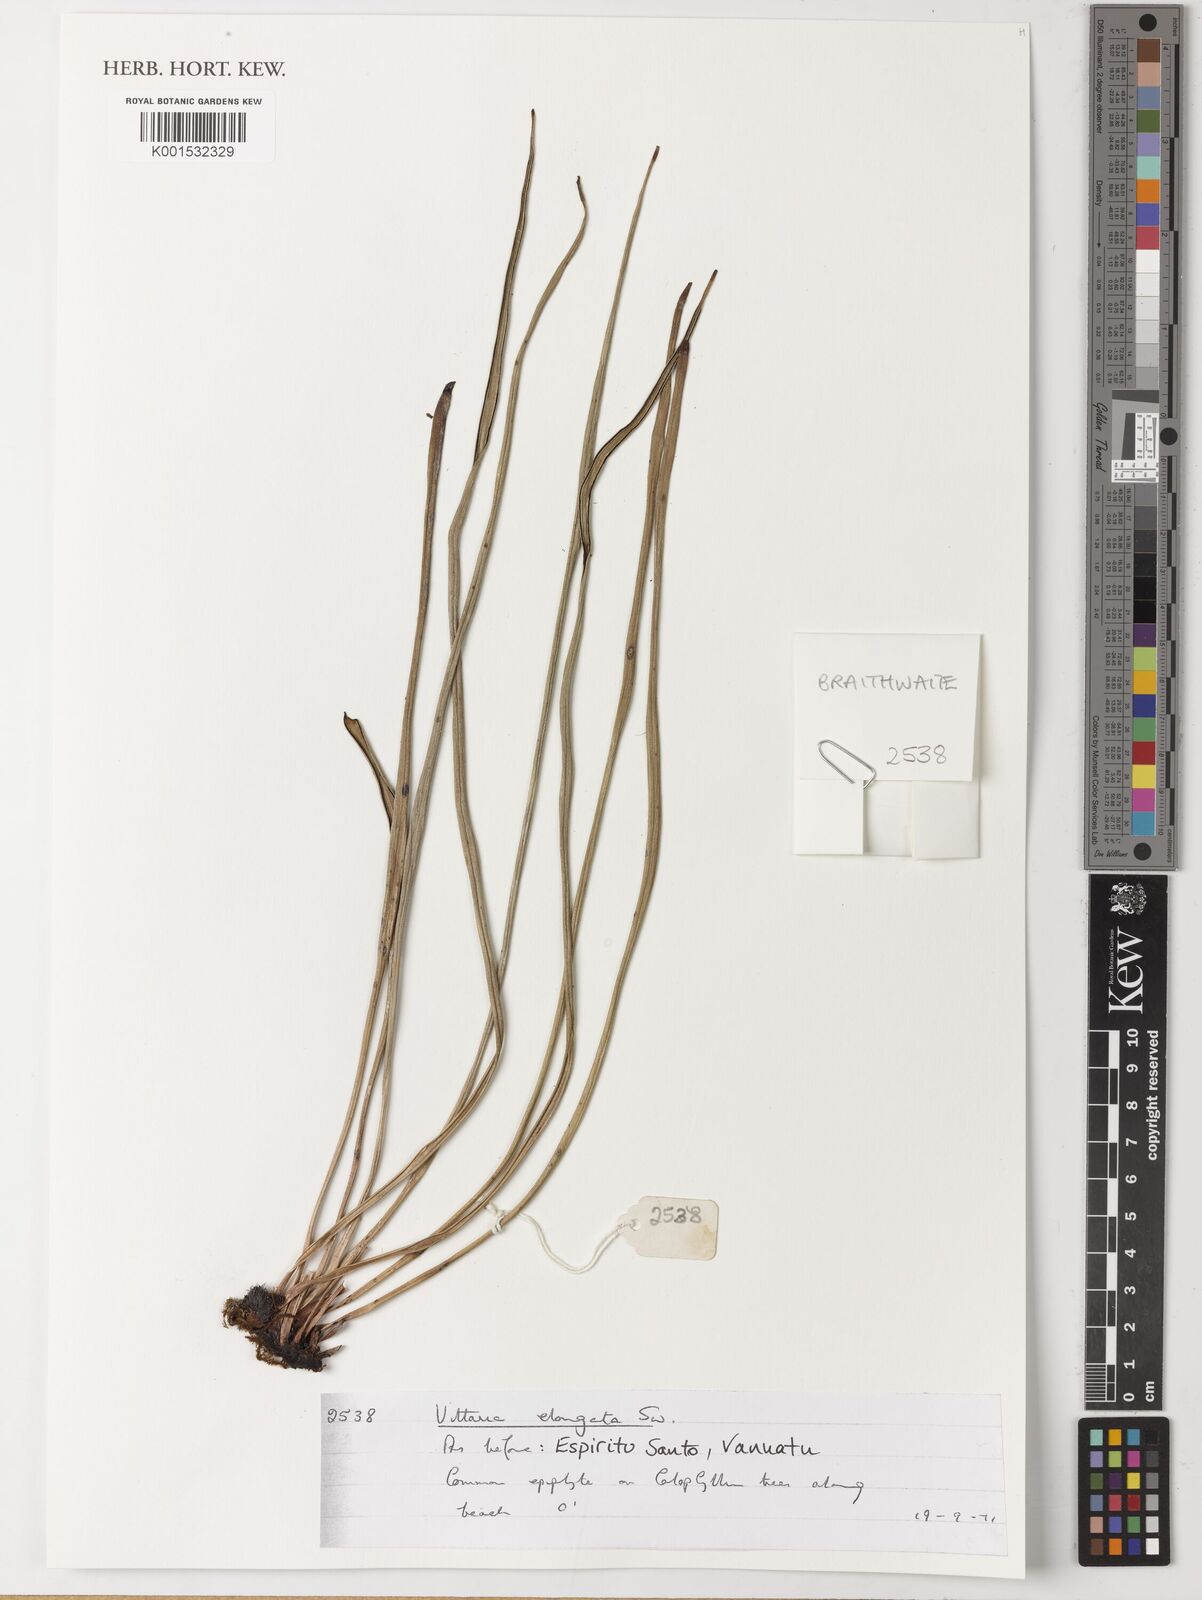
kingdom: Plantae
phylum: Tracheophyta
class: Polypodiopsida
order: Polypodiales
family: Pteridaceae
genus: Haplopteris
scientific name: Haplopteris elongata
